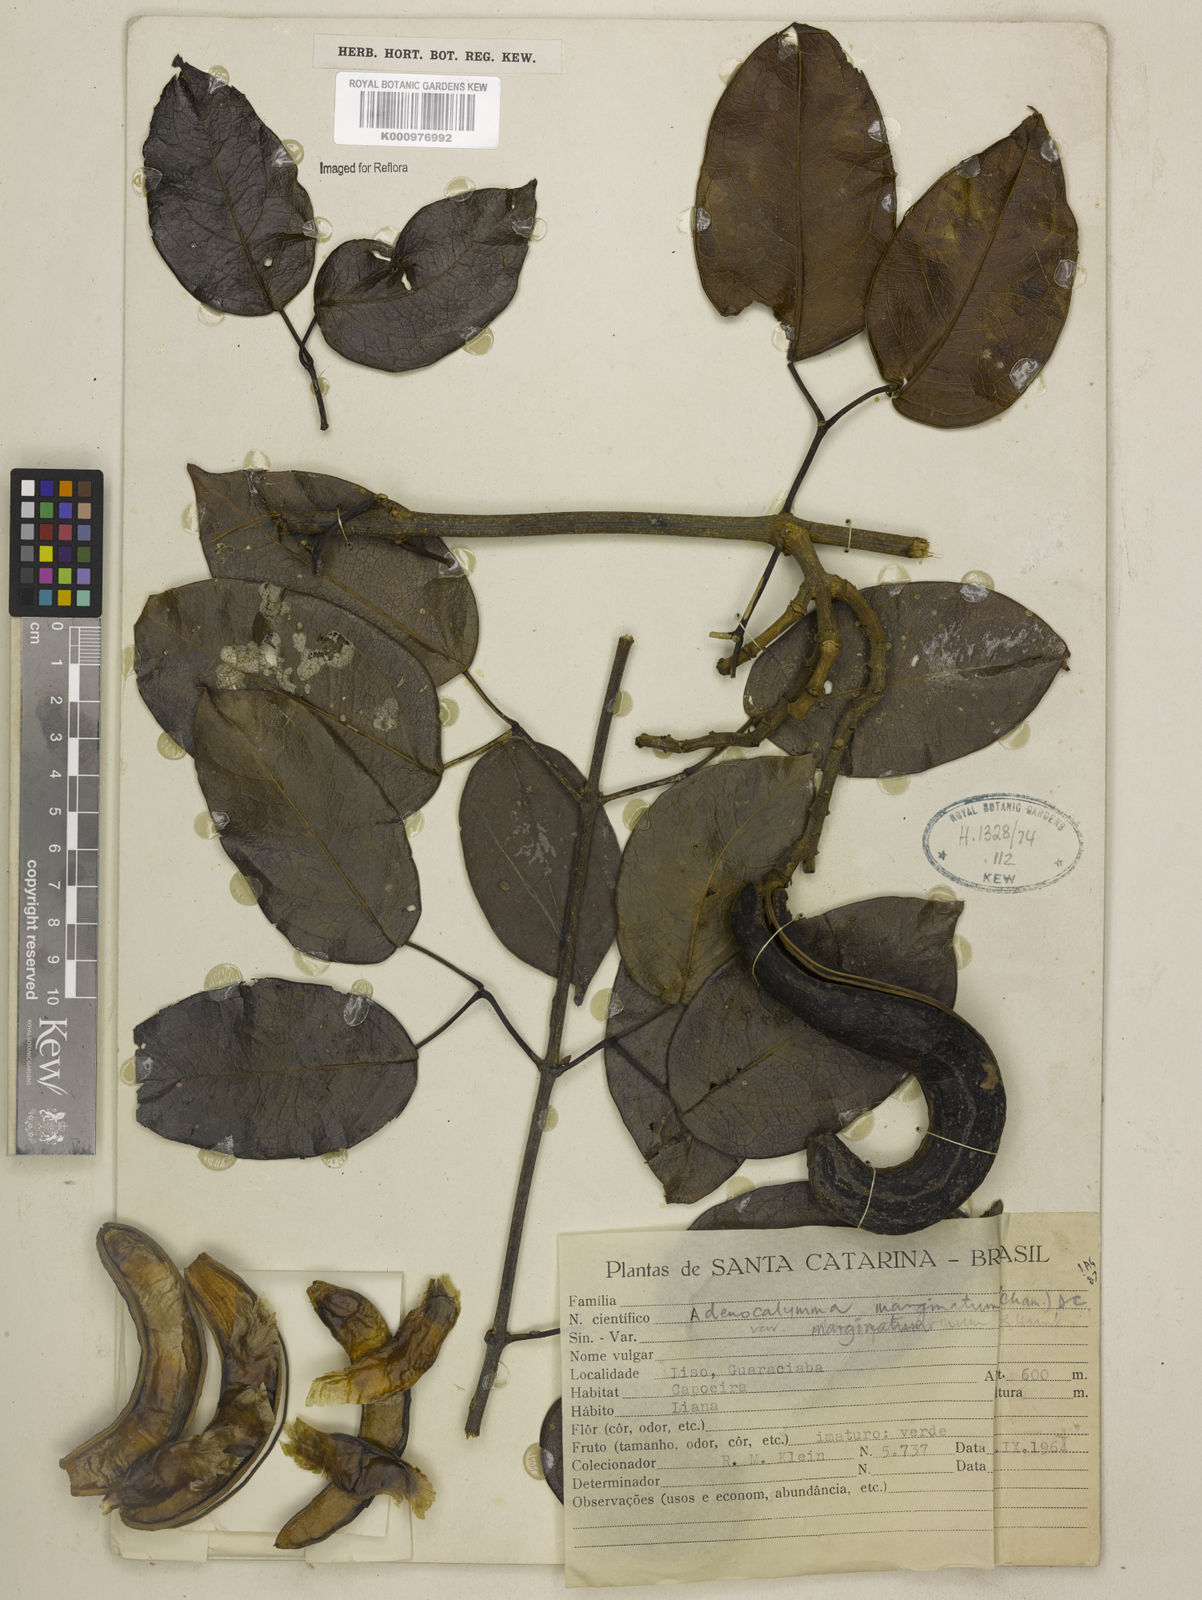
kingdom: Plantae
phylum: Tracheophyta
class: Magnoliopsida
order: Lamiales
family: Bignoniaceae
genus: Adenocalymma
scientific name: Adenocalymma marginatum
